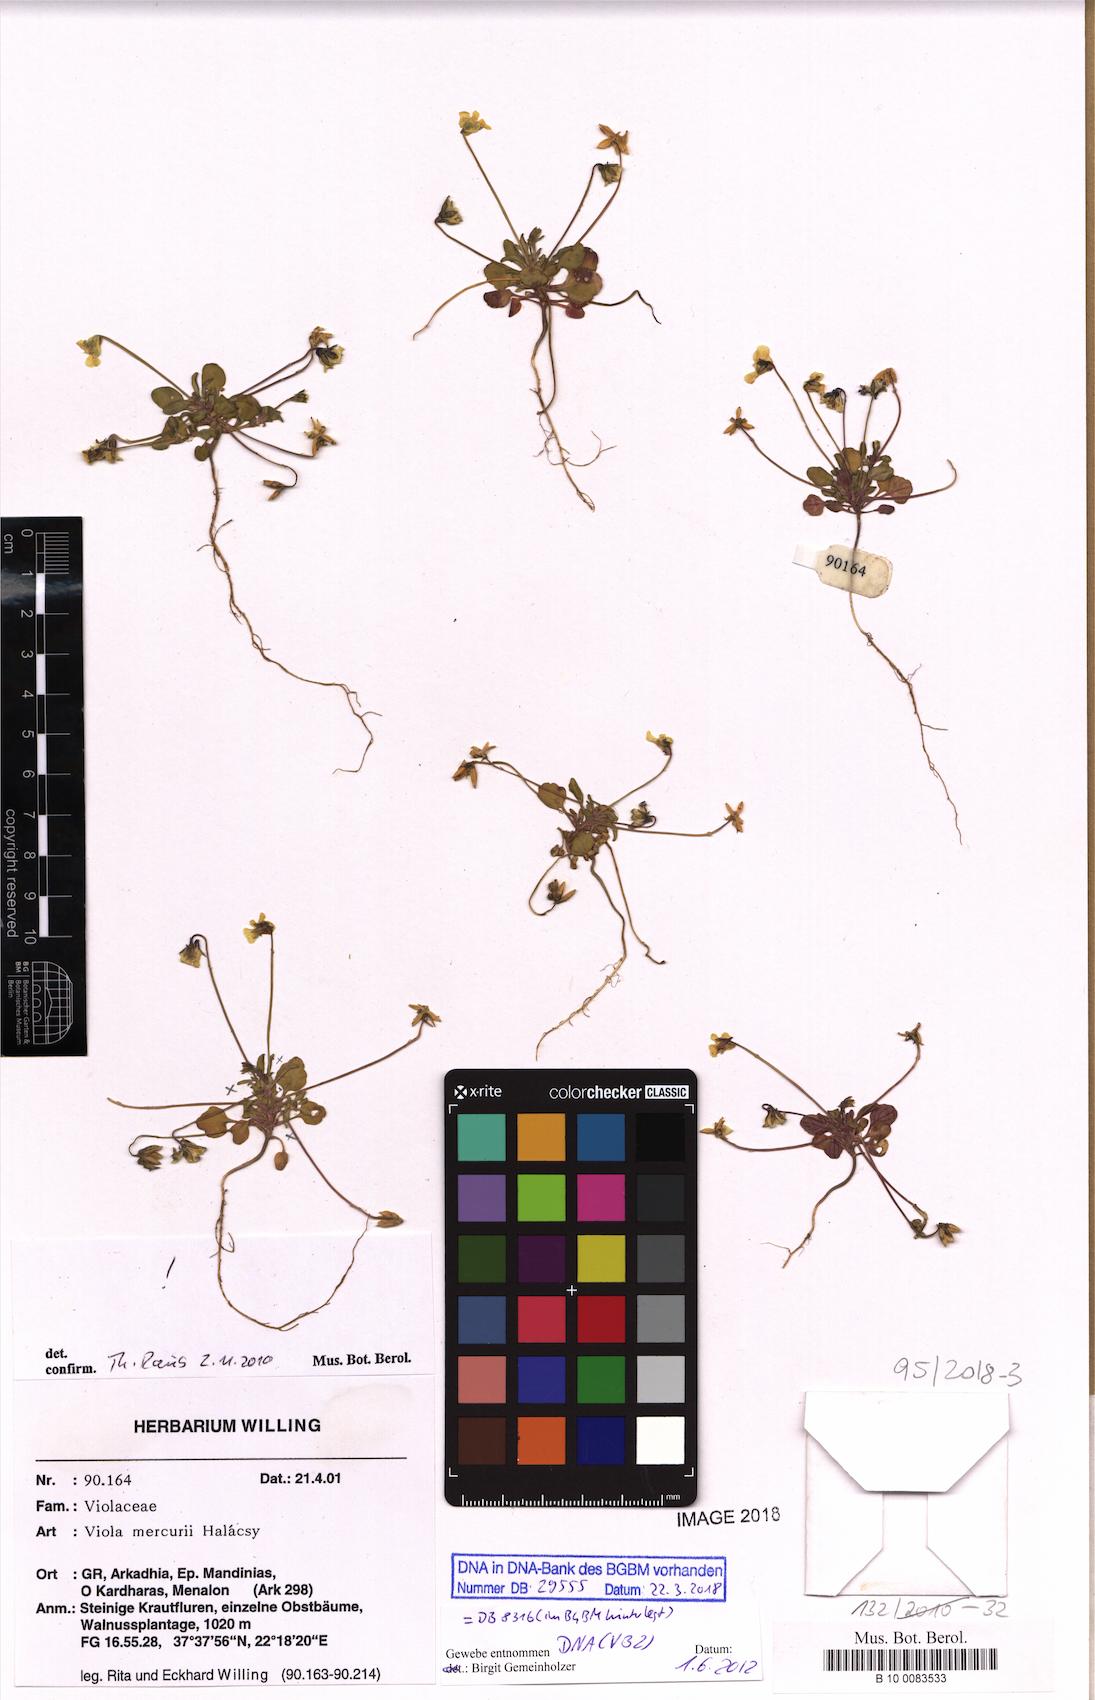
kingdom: Plantae
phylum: Tracheophyta
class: Magnoliopsida
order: Malpighiales
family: Violaceae
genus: Viola
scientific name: Viola mercurii
